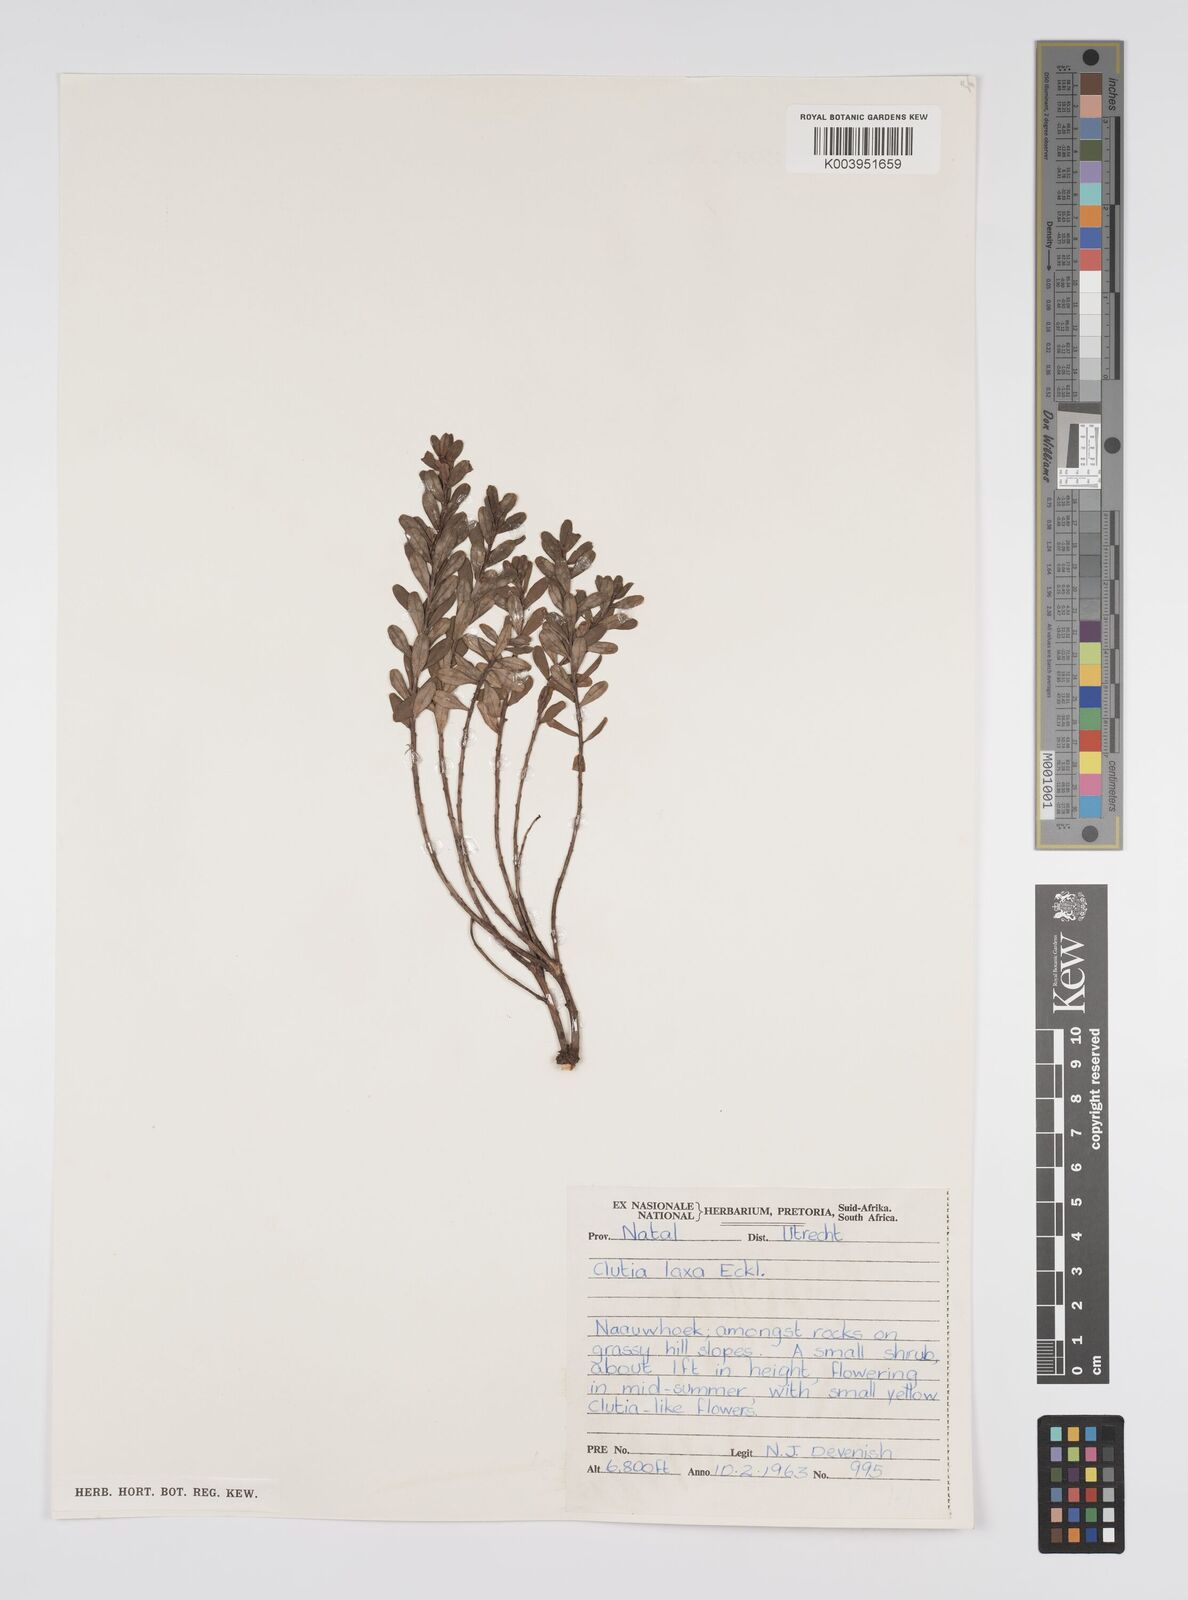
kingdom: Plantae
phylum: Tracheophyta
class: Magnoliopsida
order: Malpighiales
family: Peraceae
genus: Clutia
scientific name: Clutia laxa
